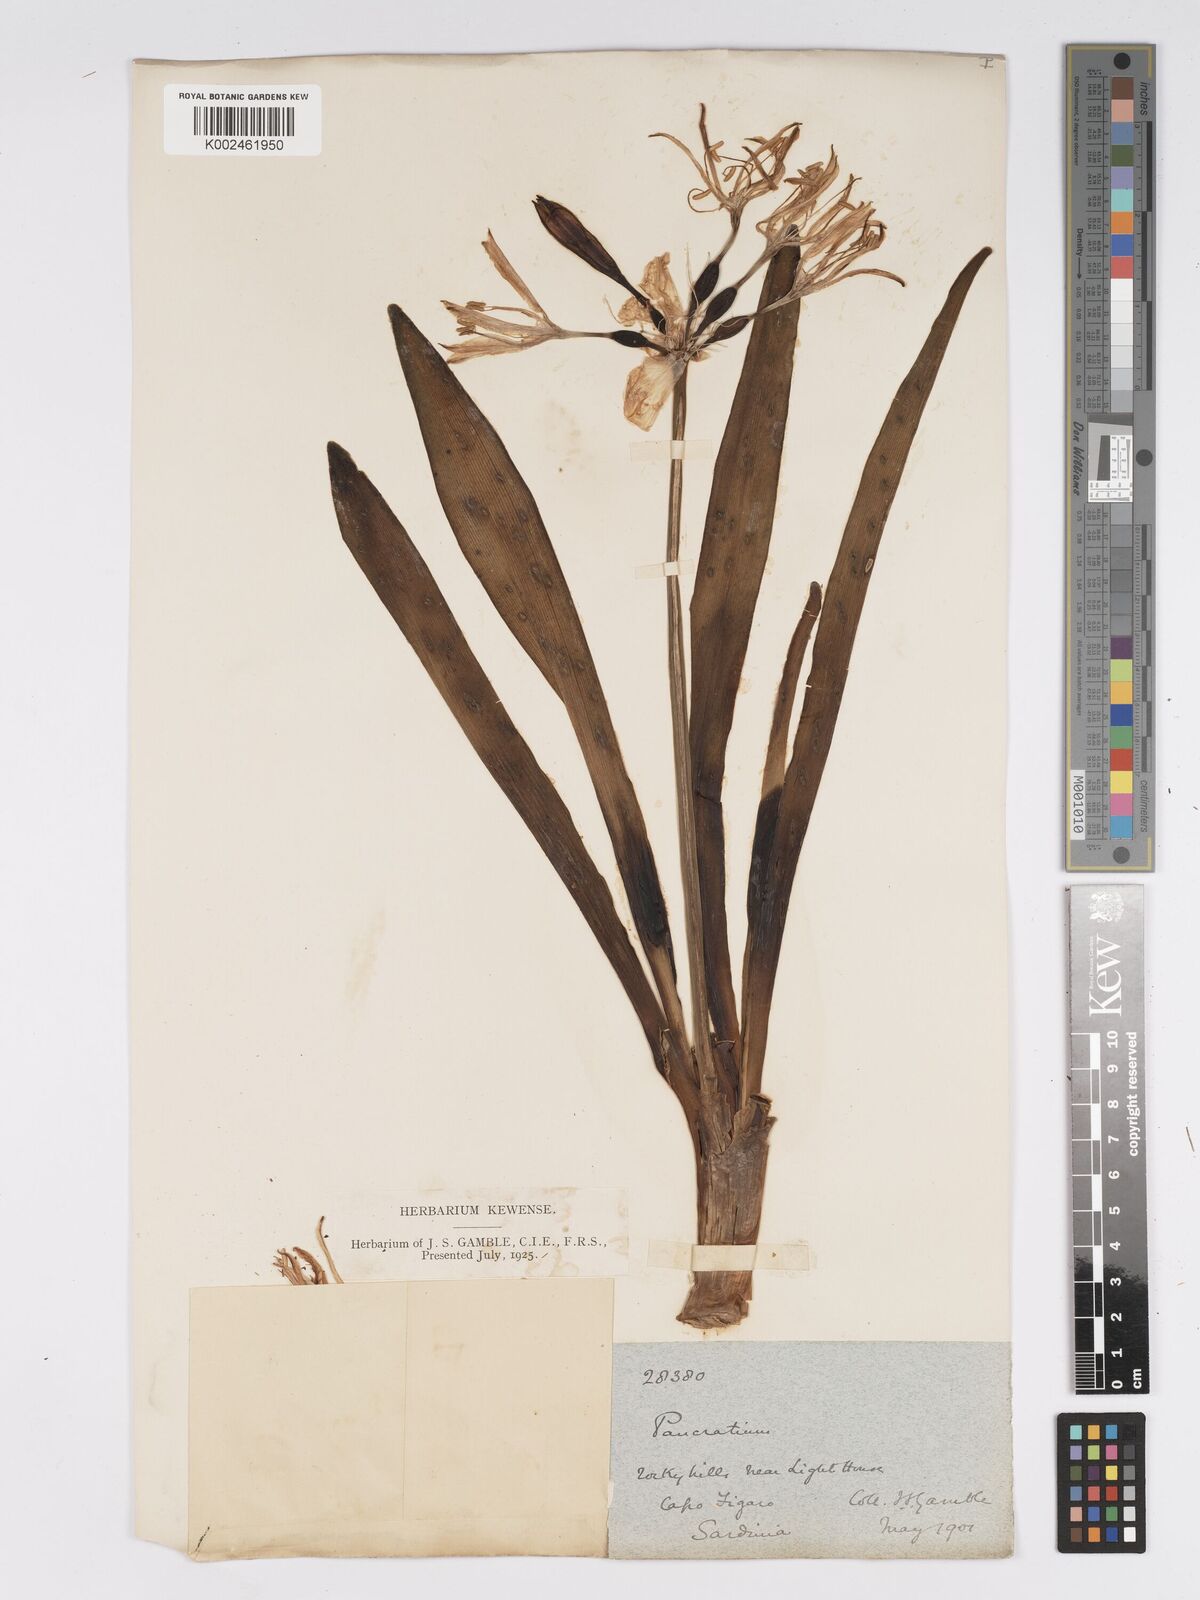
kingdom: Plantae
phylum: Tracheophyta
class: Liliopsida
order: Asparagales
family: Amaryllidaceae
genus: Pancratium
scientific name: Pancratium illyricum
